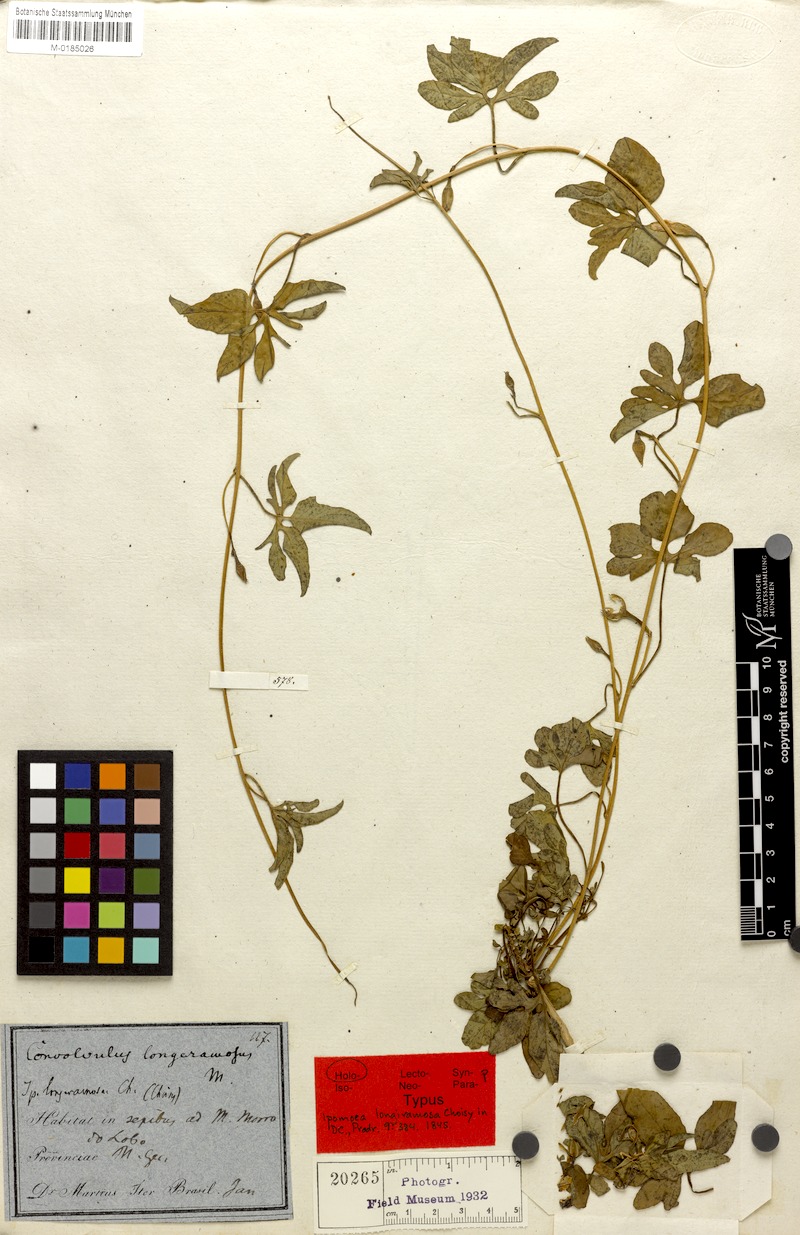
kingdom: Plantae
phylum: Tracheophyta
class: Magnoliopsida
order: Solanales
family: Convolvulaceae
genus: Ipomoea
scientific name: Ipomoea longeramosa
